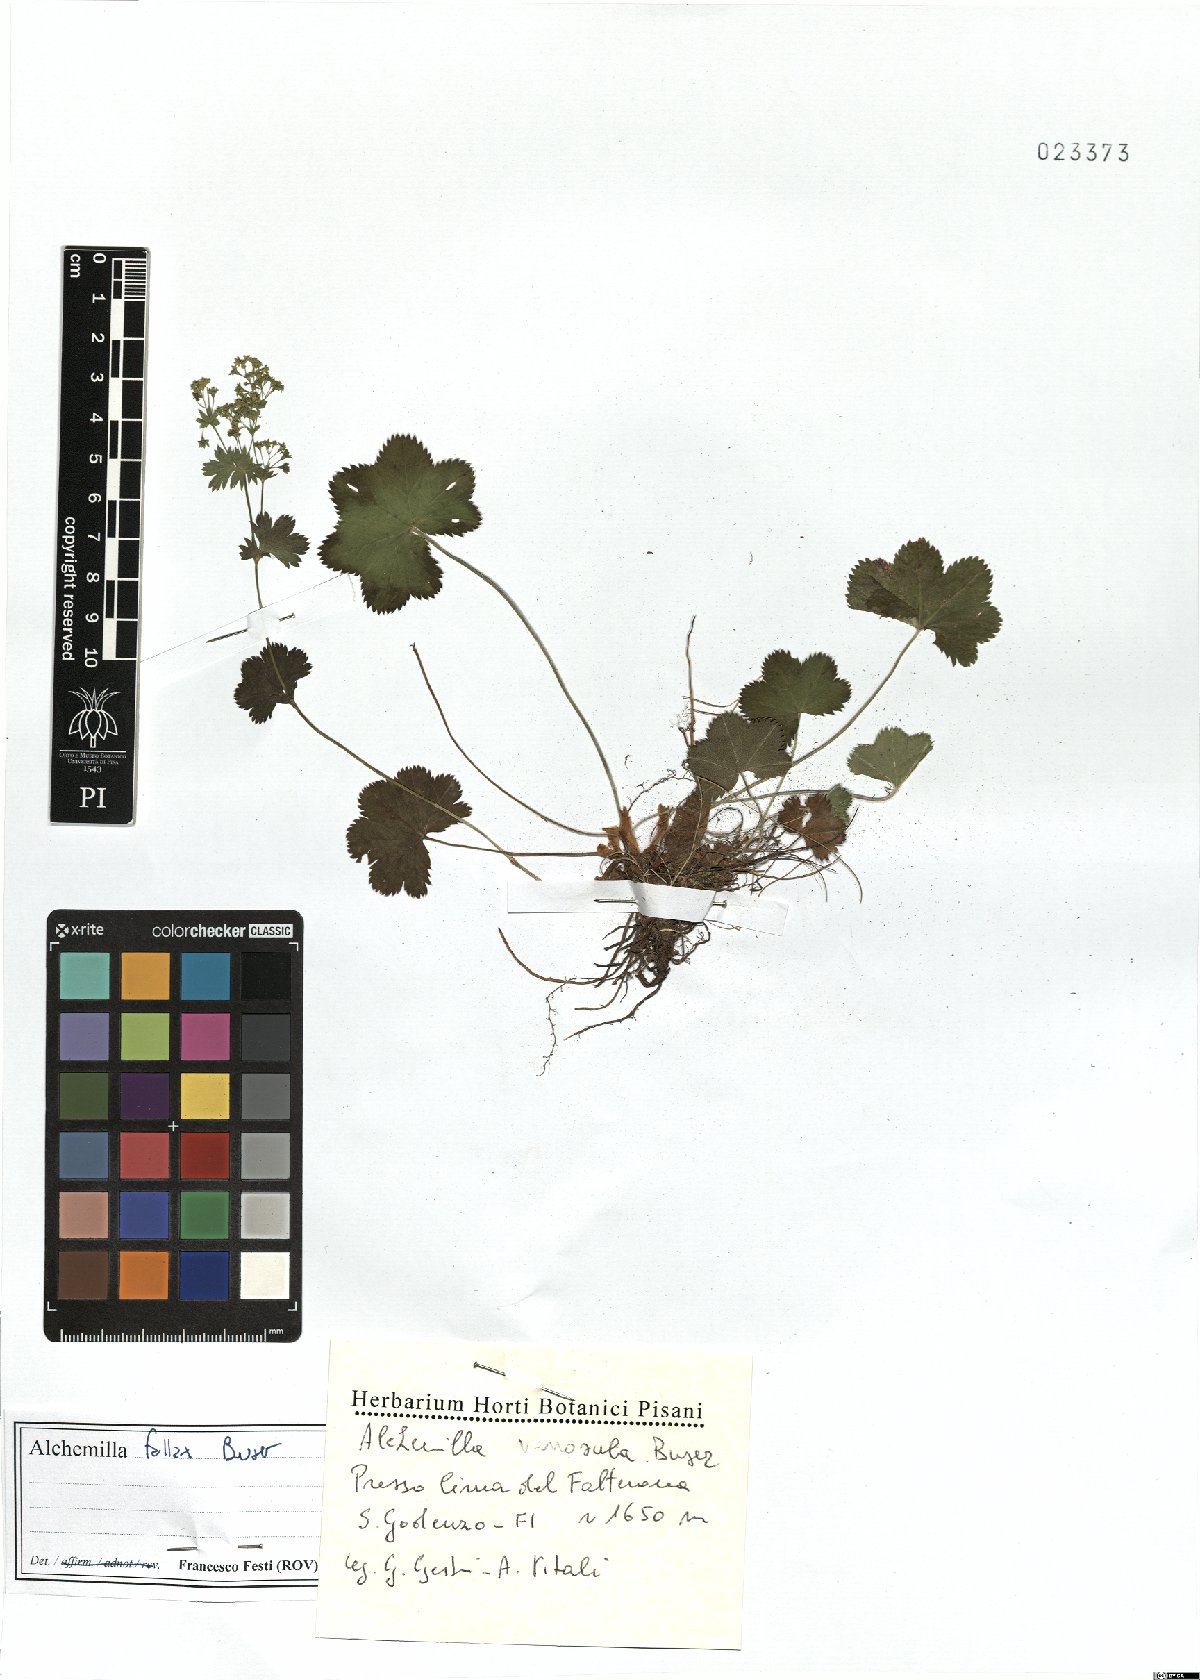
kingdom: Plantae
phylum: Tracheophyta
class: Magnoliopsida
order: Rosales
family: Rosaceae
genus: Alchemilla
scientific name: Alchemilla fallax
